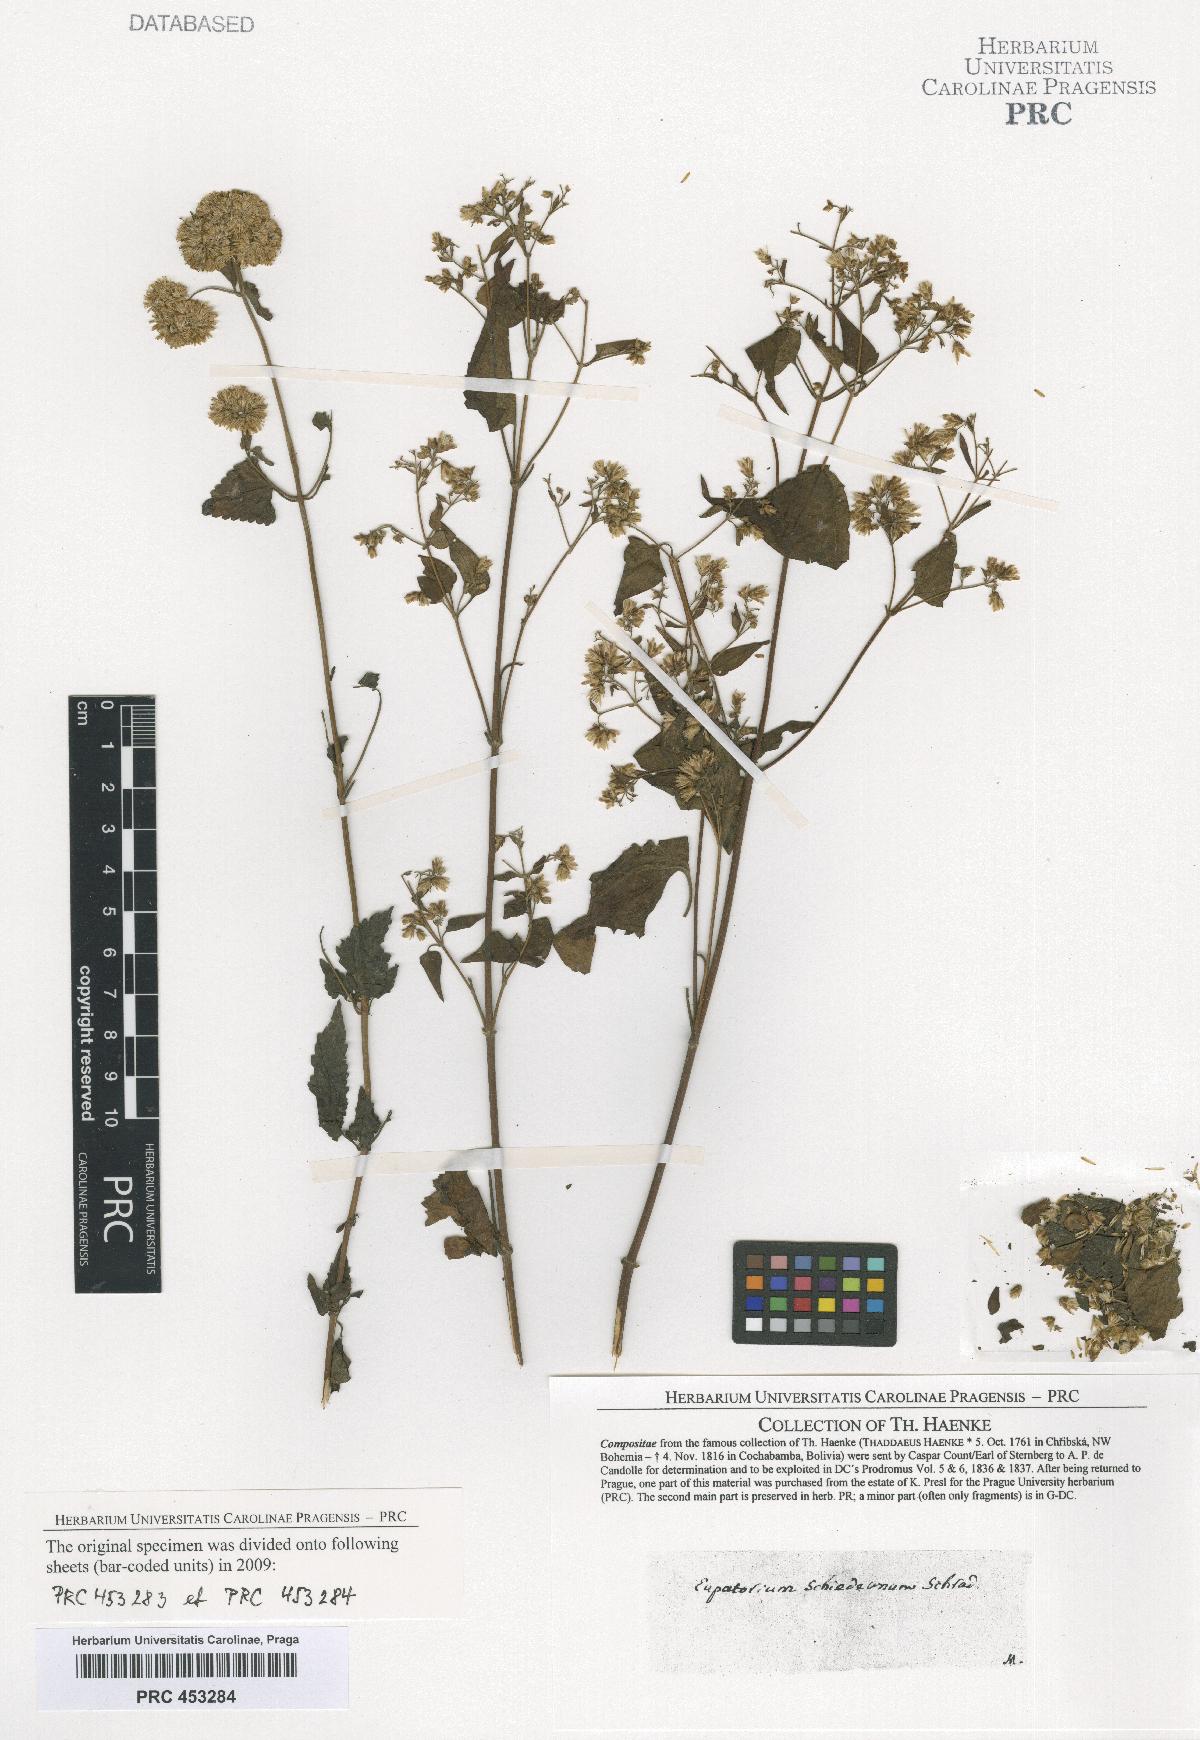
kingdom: Plantae
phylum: Tracheophyta
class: Magnoliopsida
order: Asterales
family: Asteraceae
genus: Fleischmannia
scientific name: Fleischmannia pycnocephala
